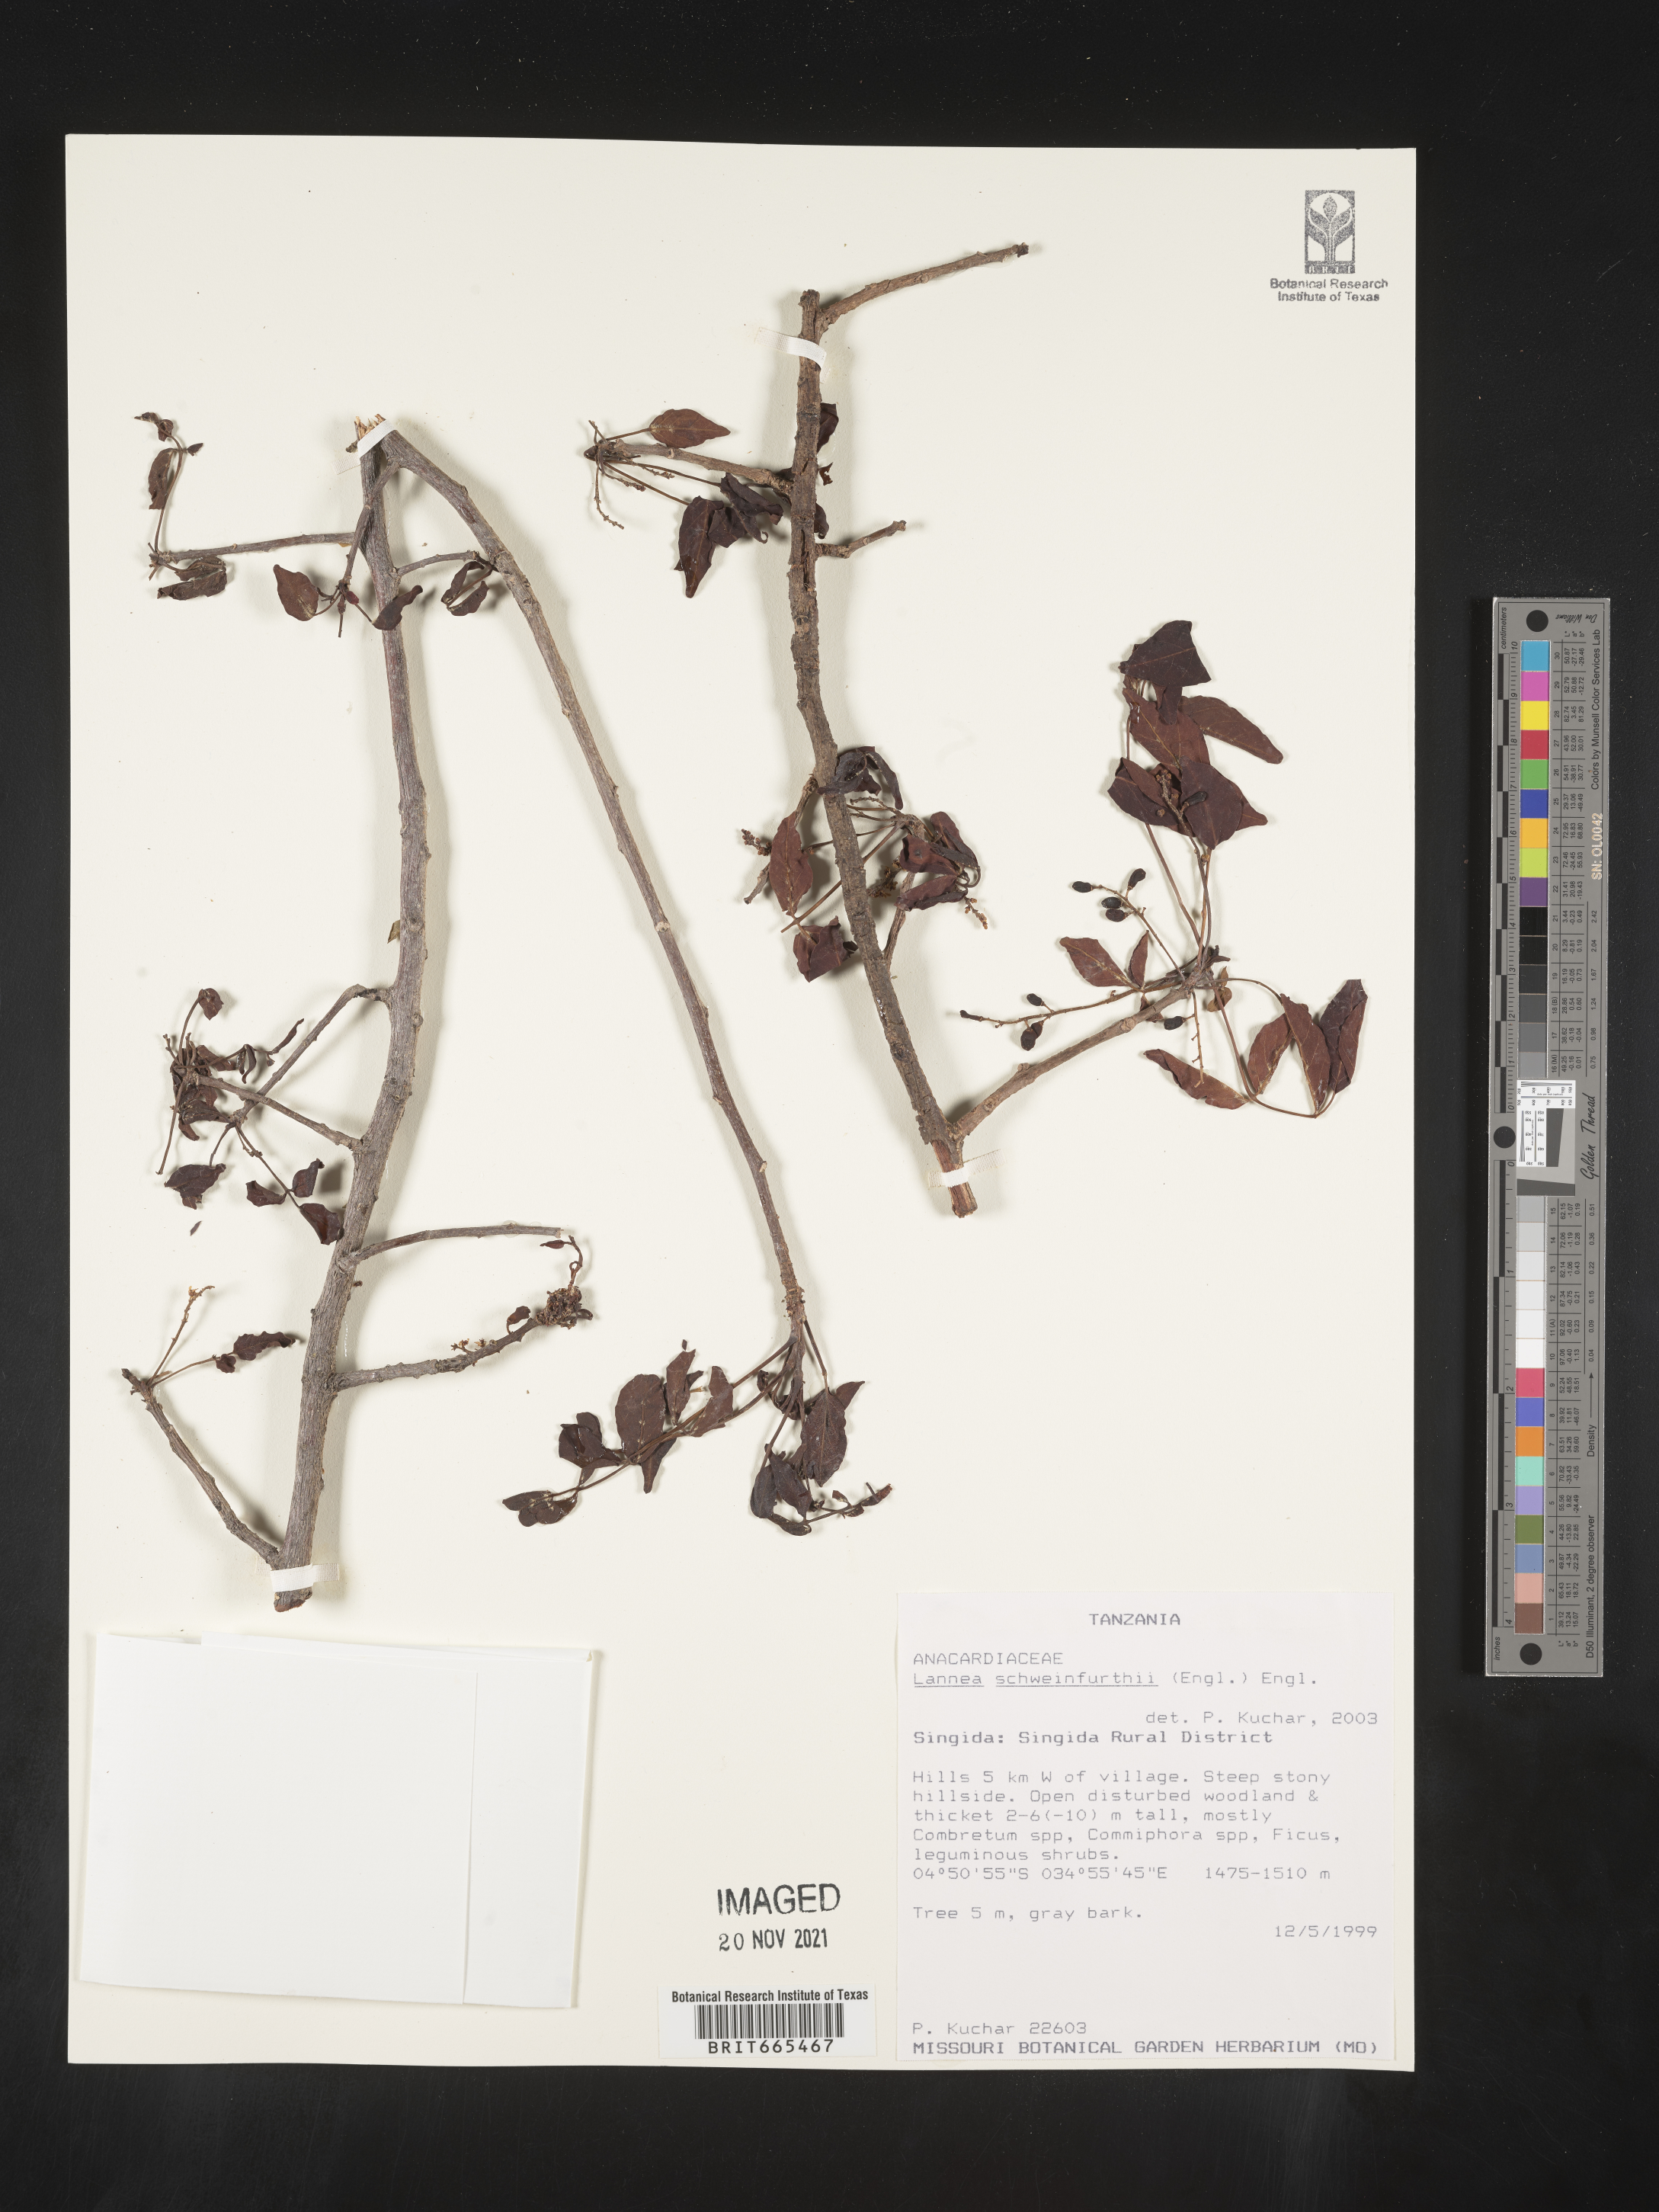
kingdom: Plantae
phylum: Tracheophyta
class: Magnoliopsida
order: Sapindales
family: Anacardiaceae
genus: Lannea
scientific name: Lannea
